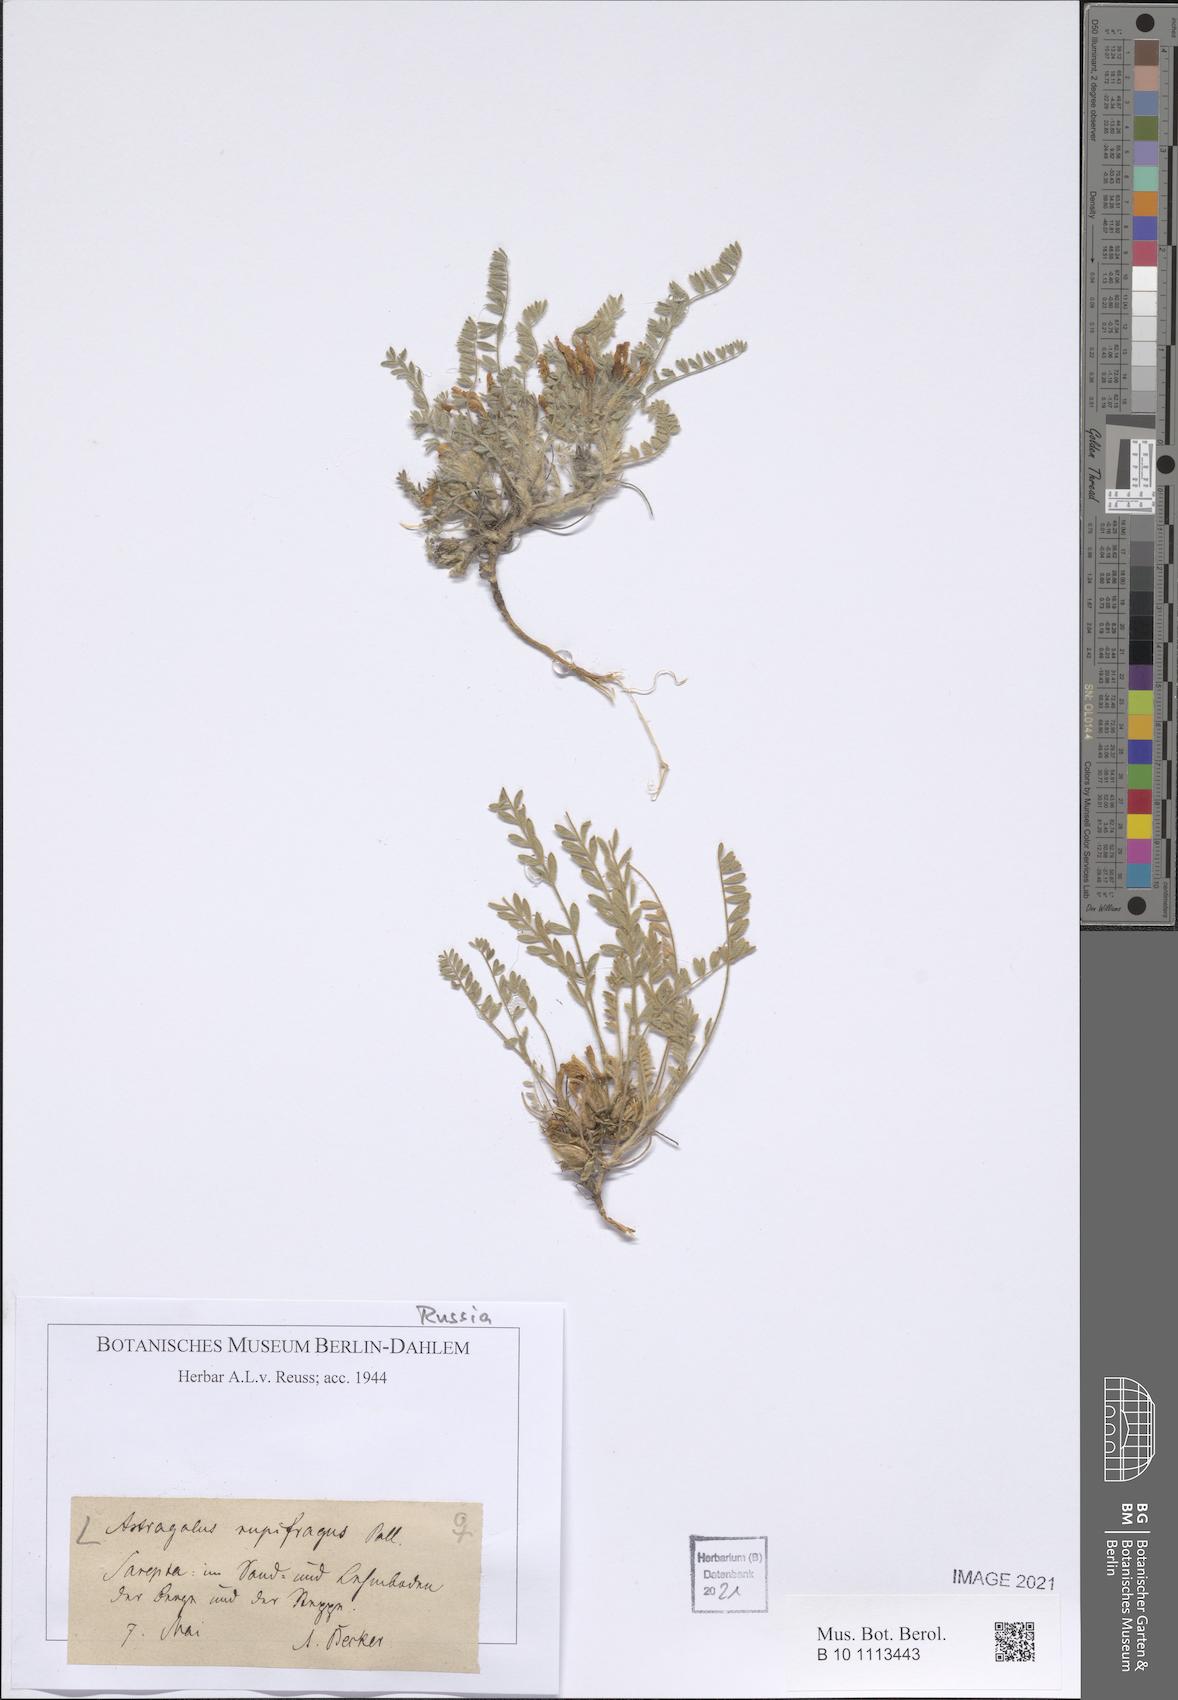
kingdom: Plantae
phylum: Tracheophyta
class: Magnoliopsida
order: Fabales
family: Fabaceae
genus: Astragalus
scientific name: Astragalus rupifragus
